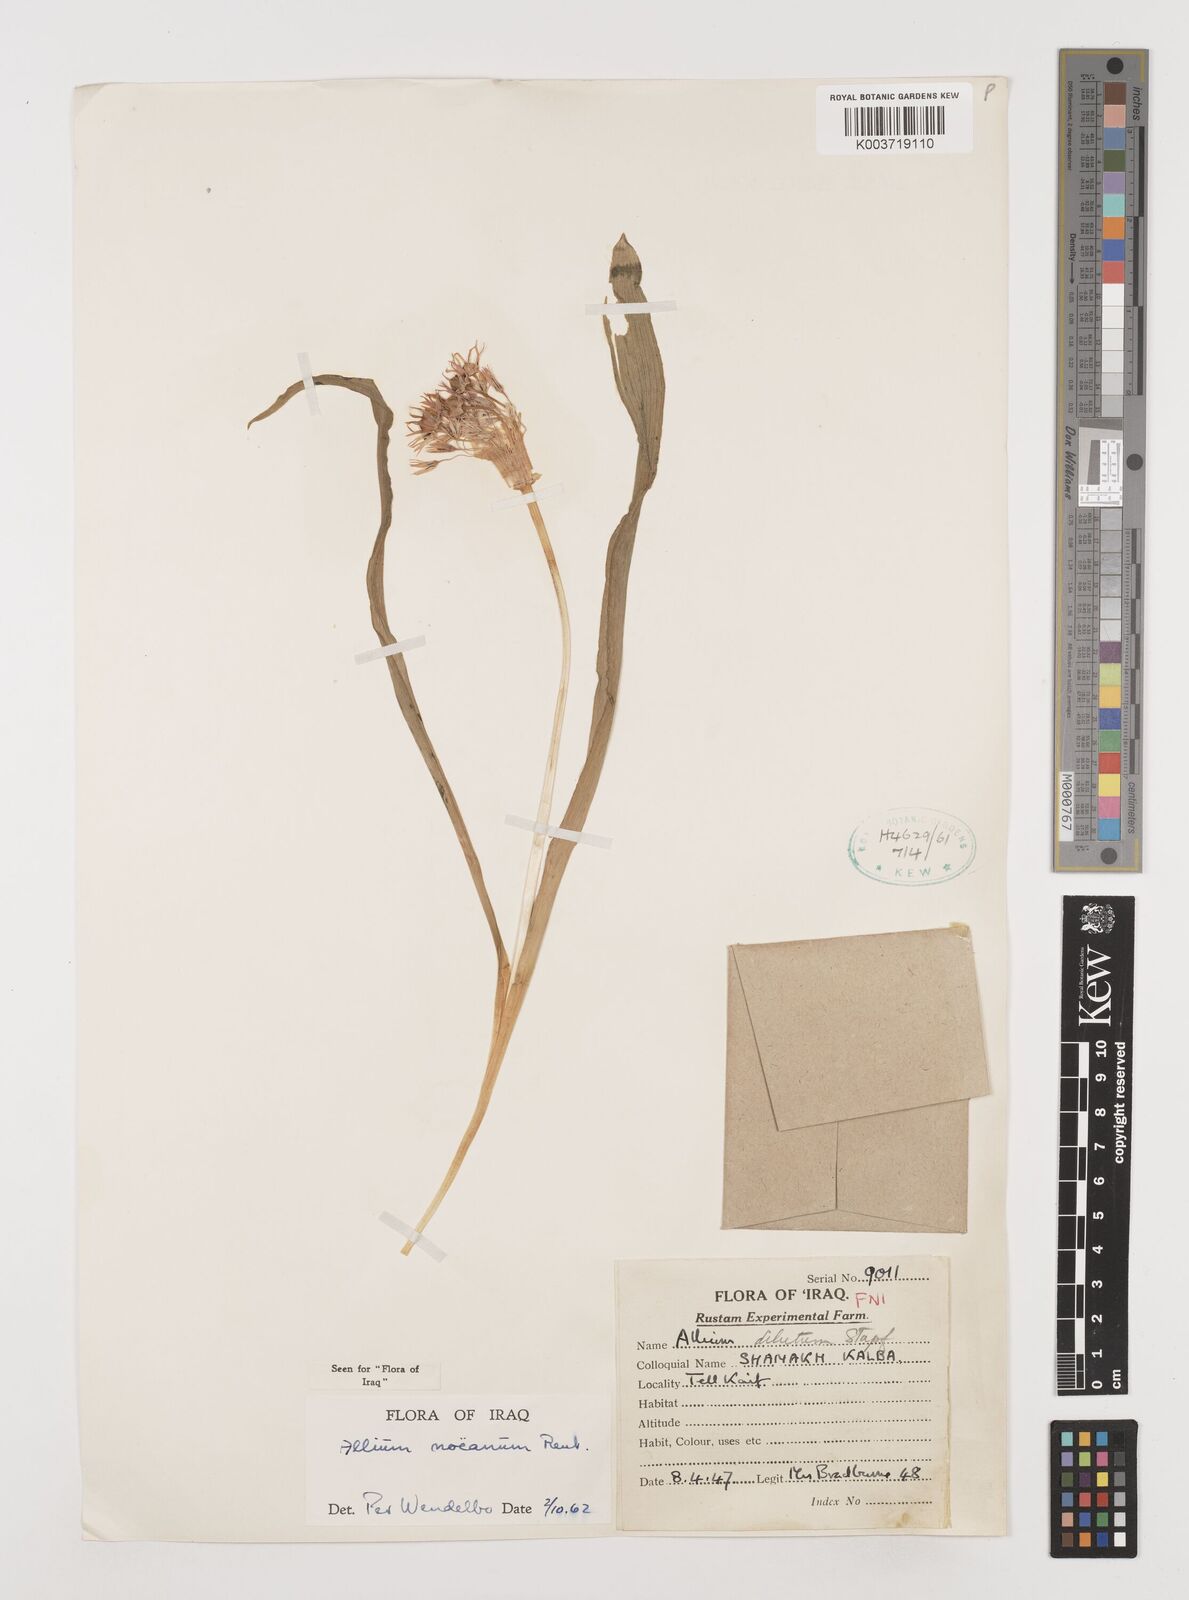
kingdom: Plantae
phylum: Tracheophyta
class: Liliopsida
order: Asparagales
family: Amaryllidaceae
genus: Allium
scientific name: Allium noeanum
